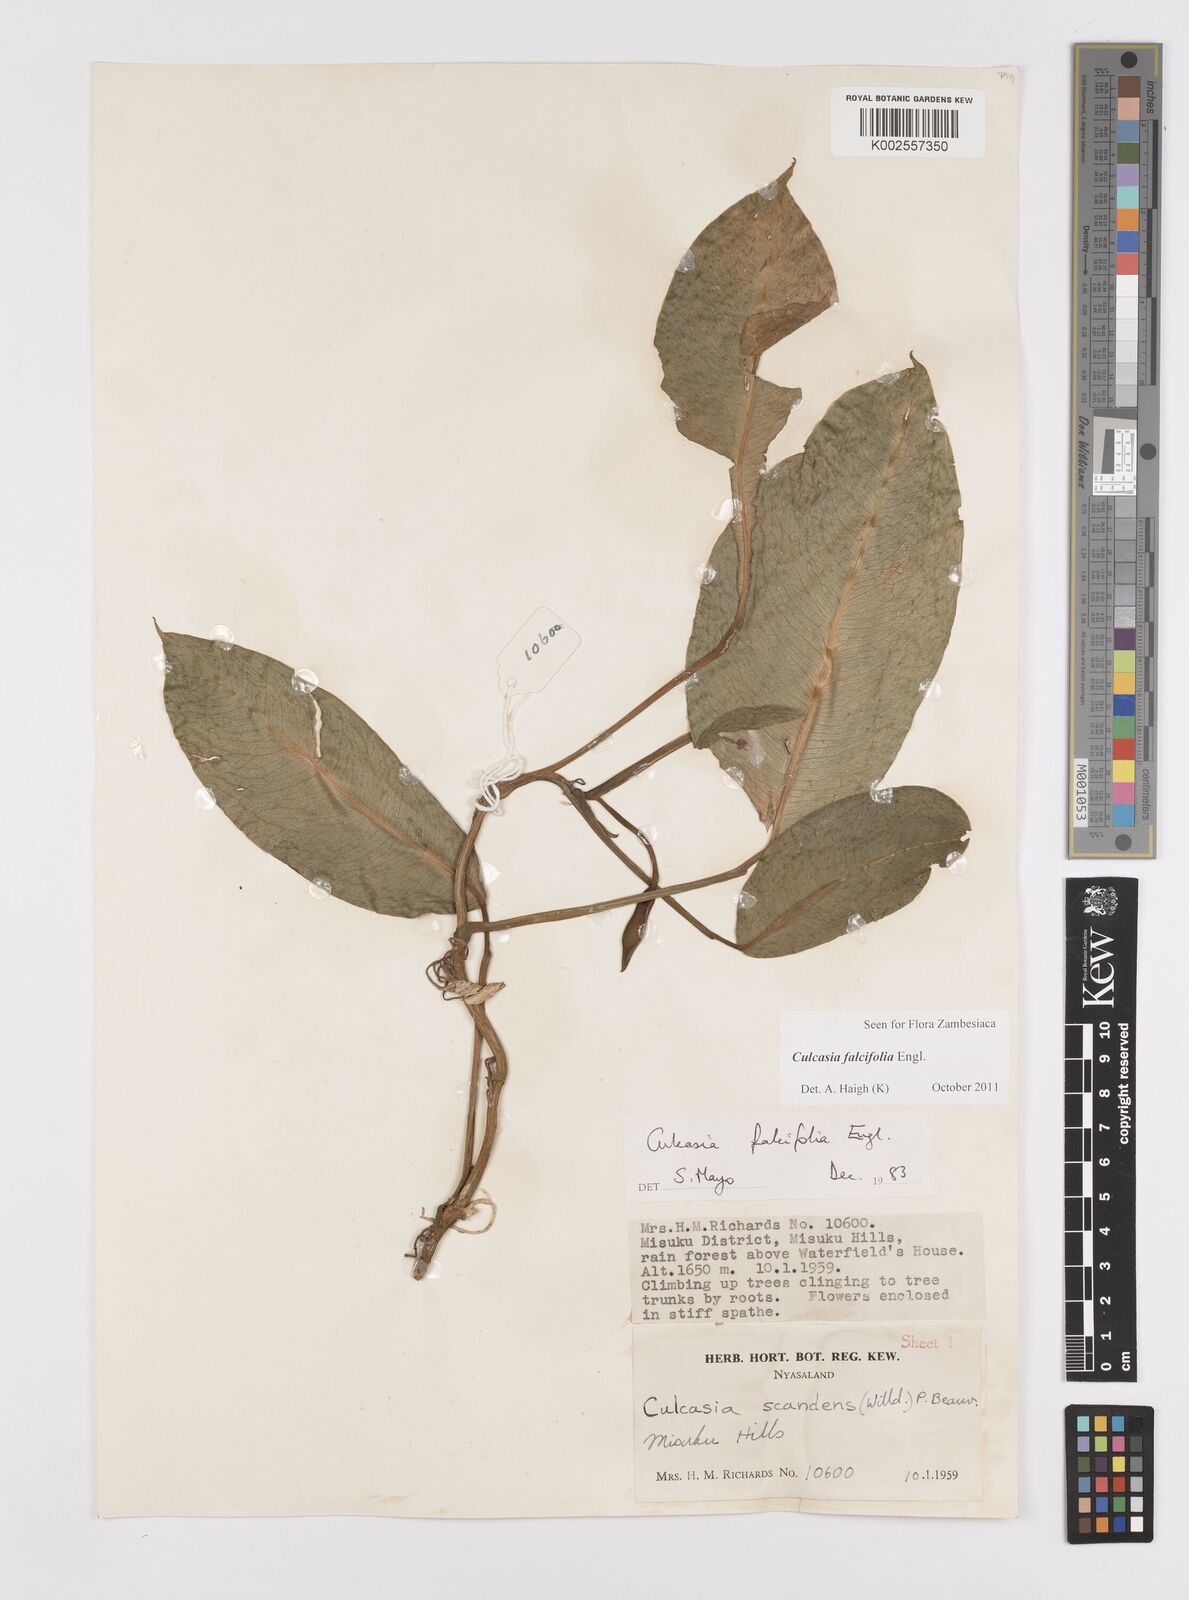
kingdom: Plantae
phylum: Tracheophyta
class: Liliopsida
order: Alismatales
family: Araceae
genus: Culcasia
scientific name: Culcasia falcifolia
